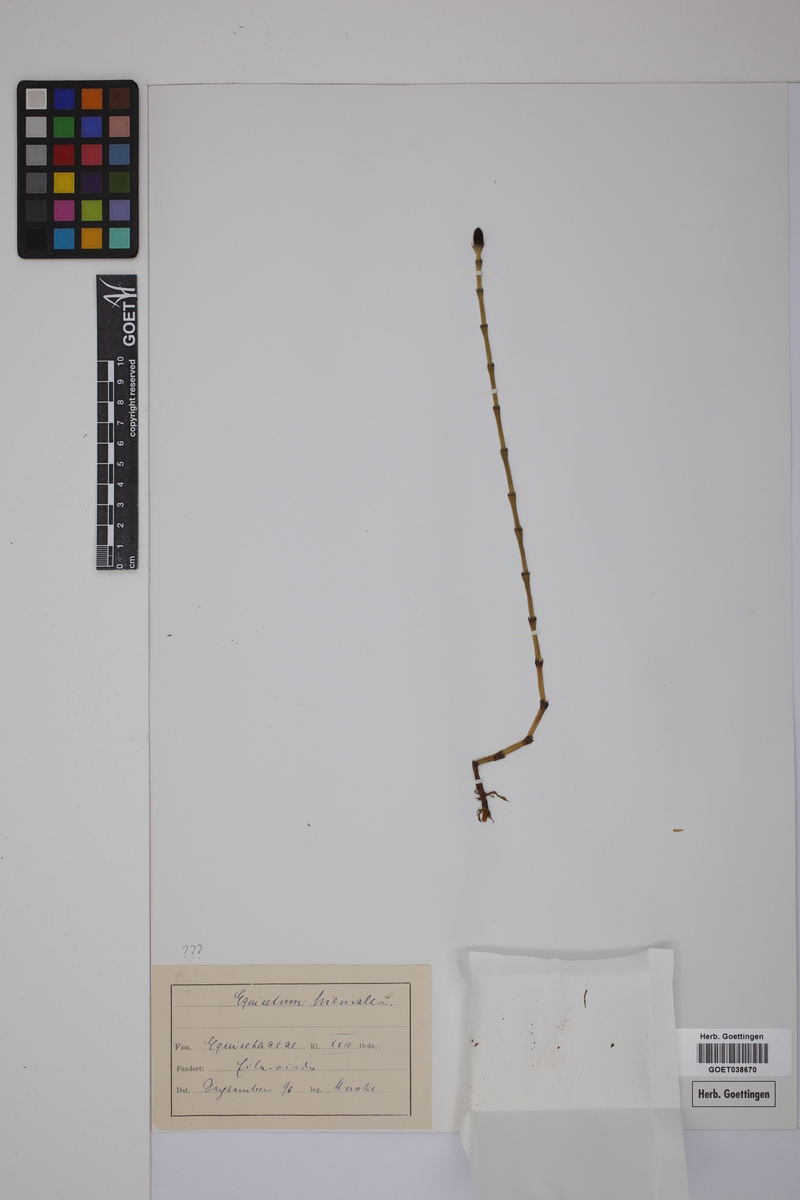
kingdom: Plantae
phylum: Tracheophyta
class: Polypodiopsida
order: Equisetales
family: Equisetaceae
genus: Equisetum
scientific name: Equisetum hyemale
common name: Rough horsetail
